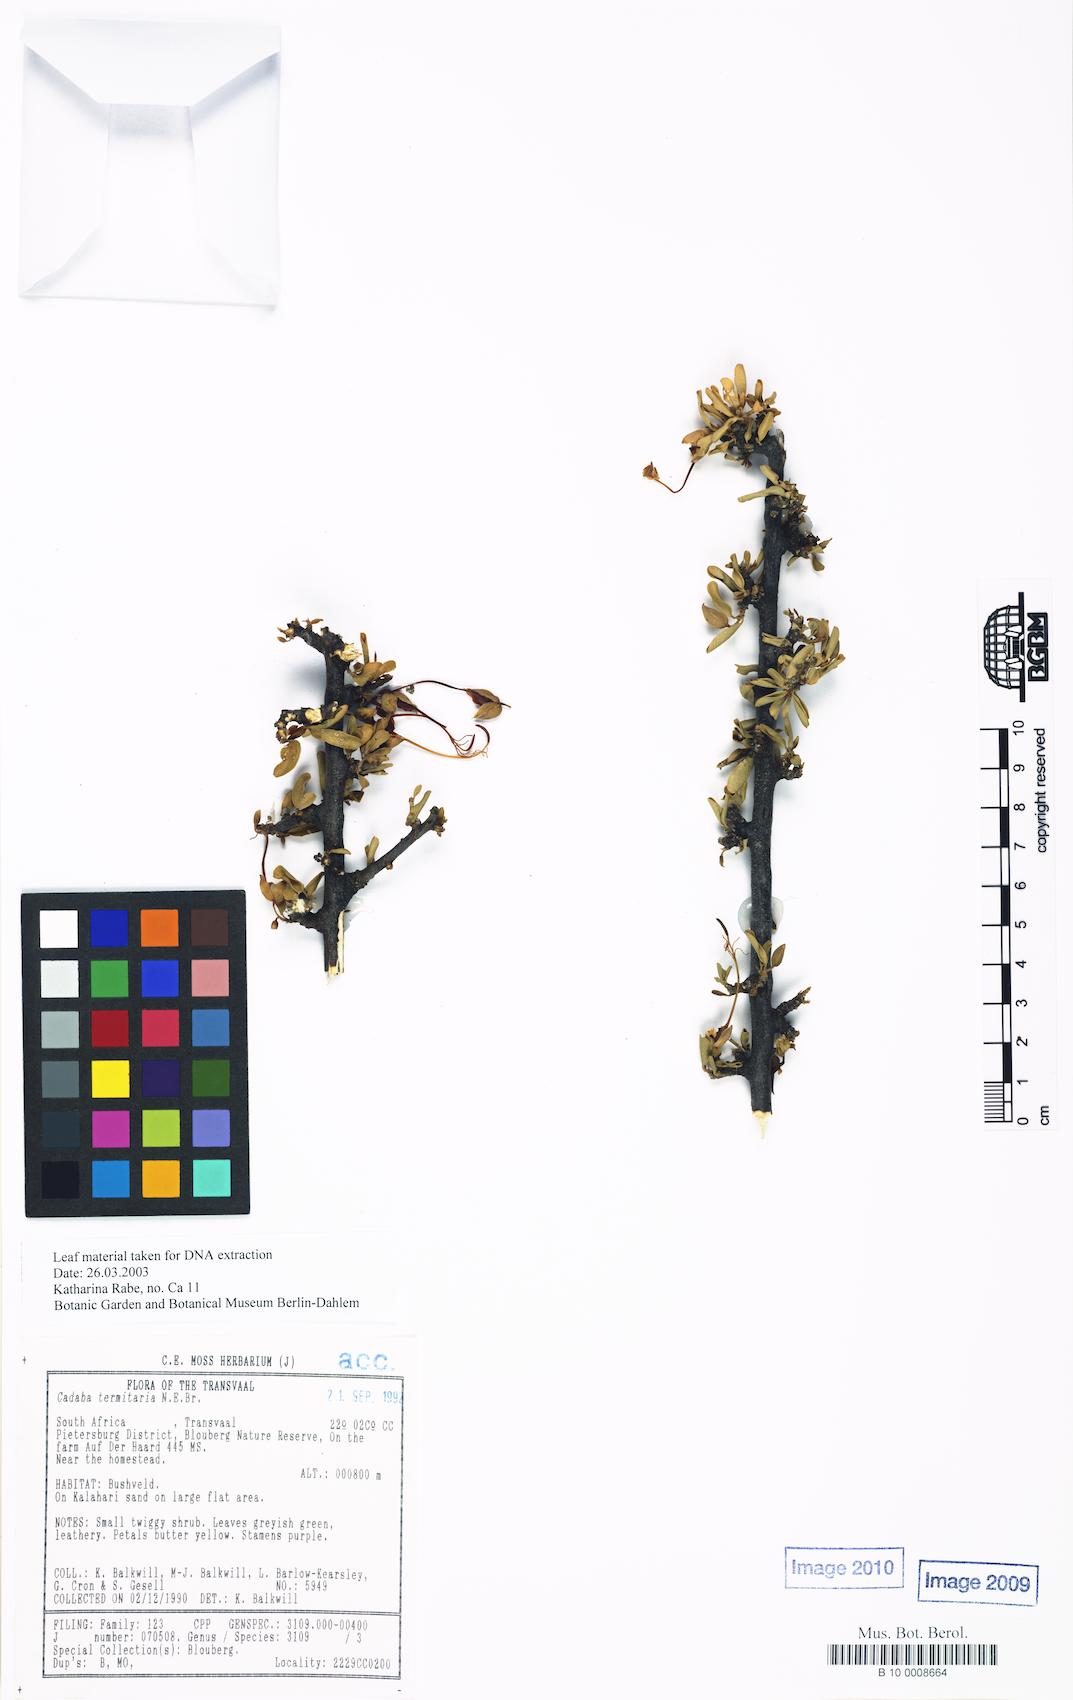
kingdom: Plantae
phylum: Tracheophyta
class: Magnoliopsida
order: Brassicales
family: Capparaceae
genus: Cadaba
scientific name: Cadaba termitaria
